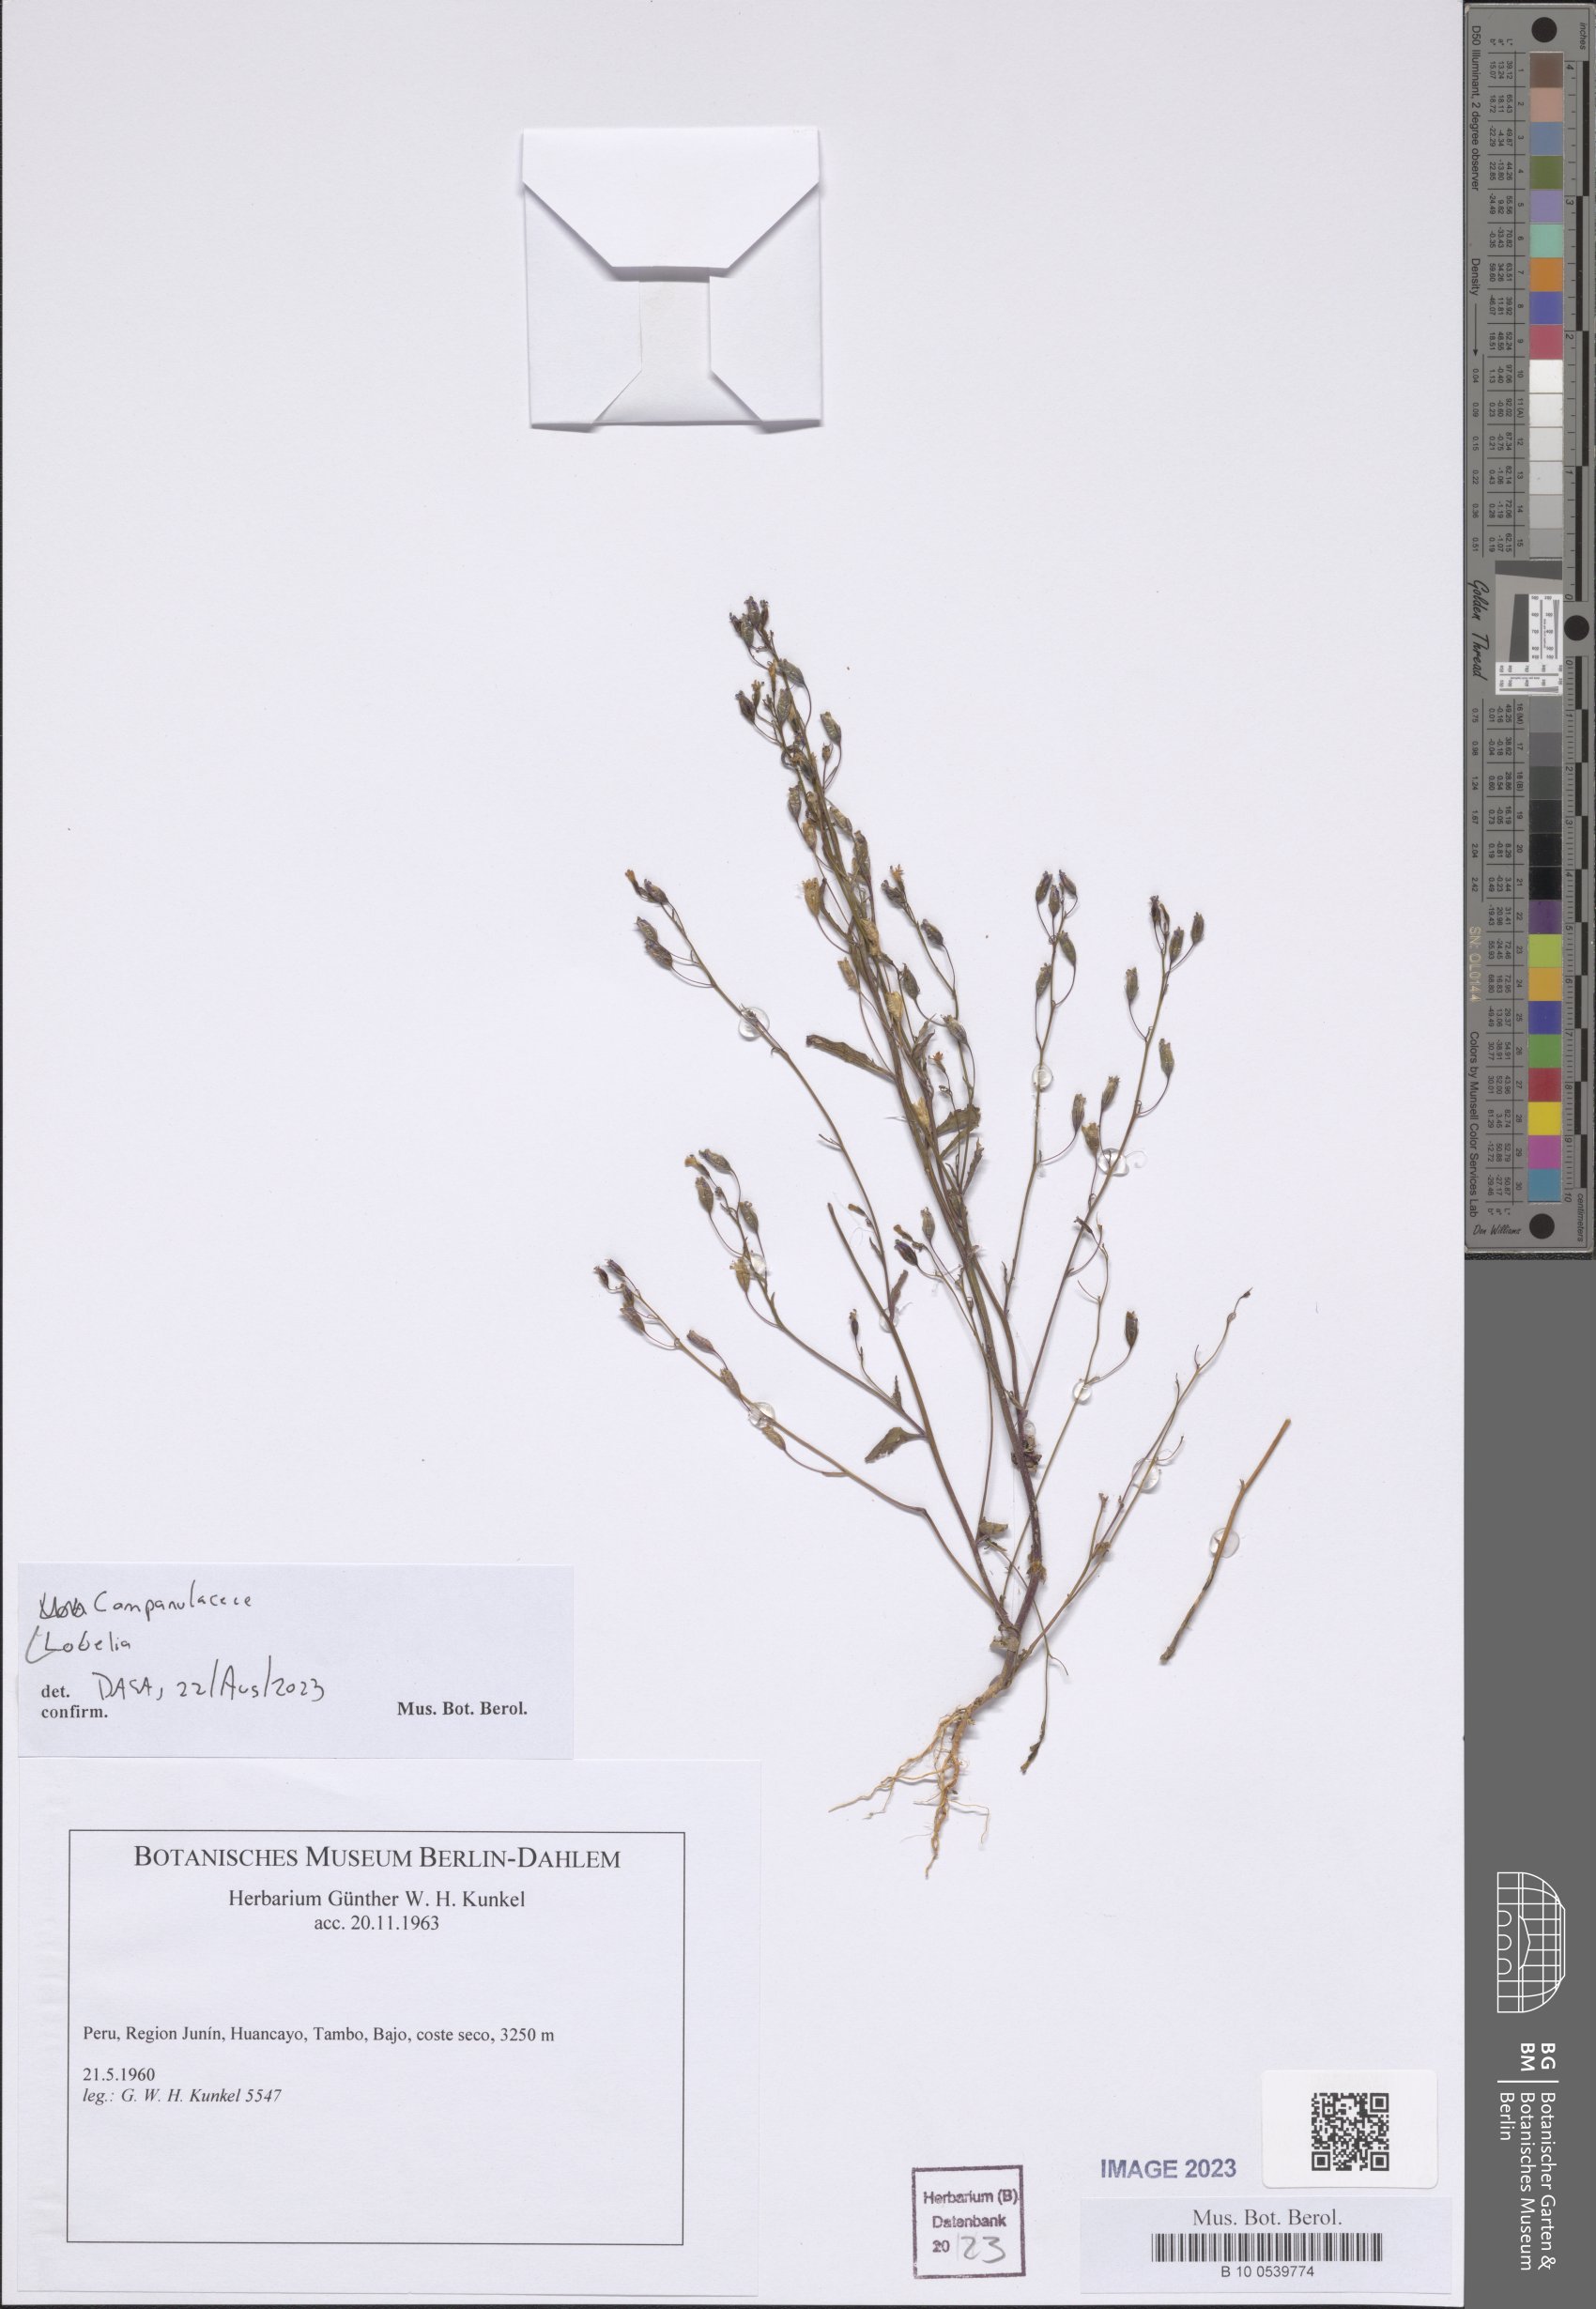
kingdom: Plantae
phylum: Tracheophyta
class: Magnoliopsida
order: Asterales
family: Campanulaceae
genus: Lobelia
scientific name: Lobelia
